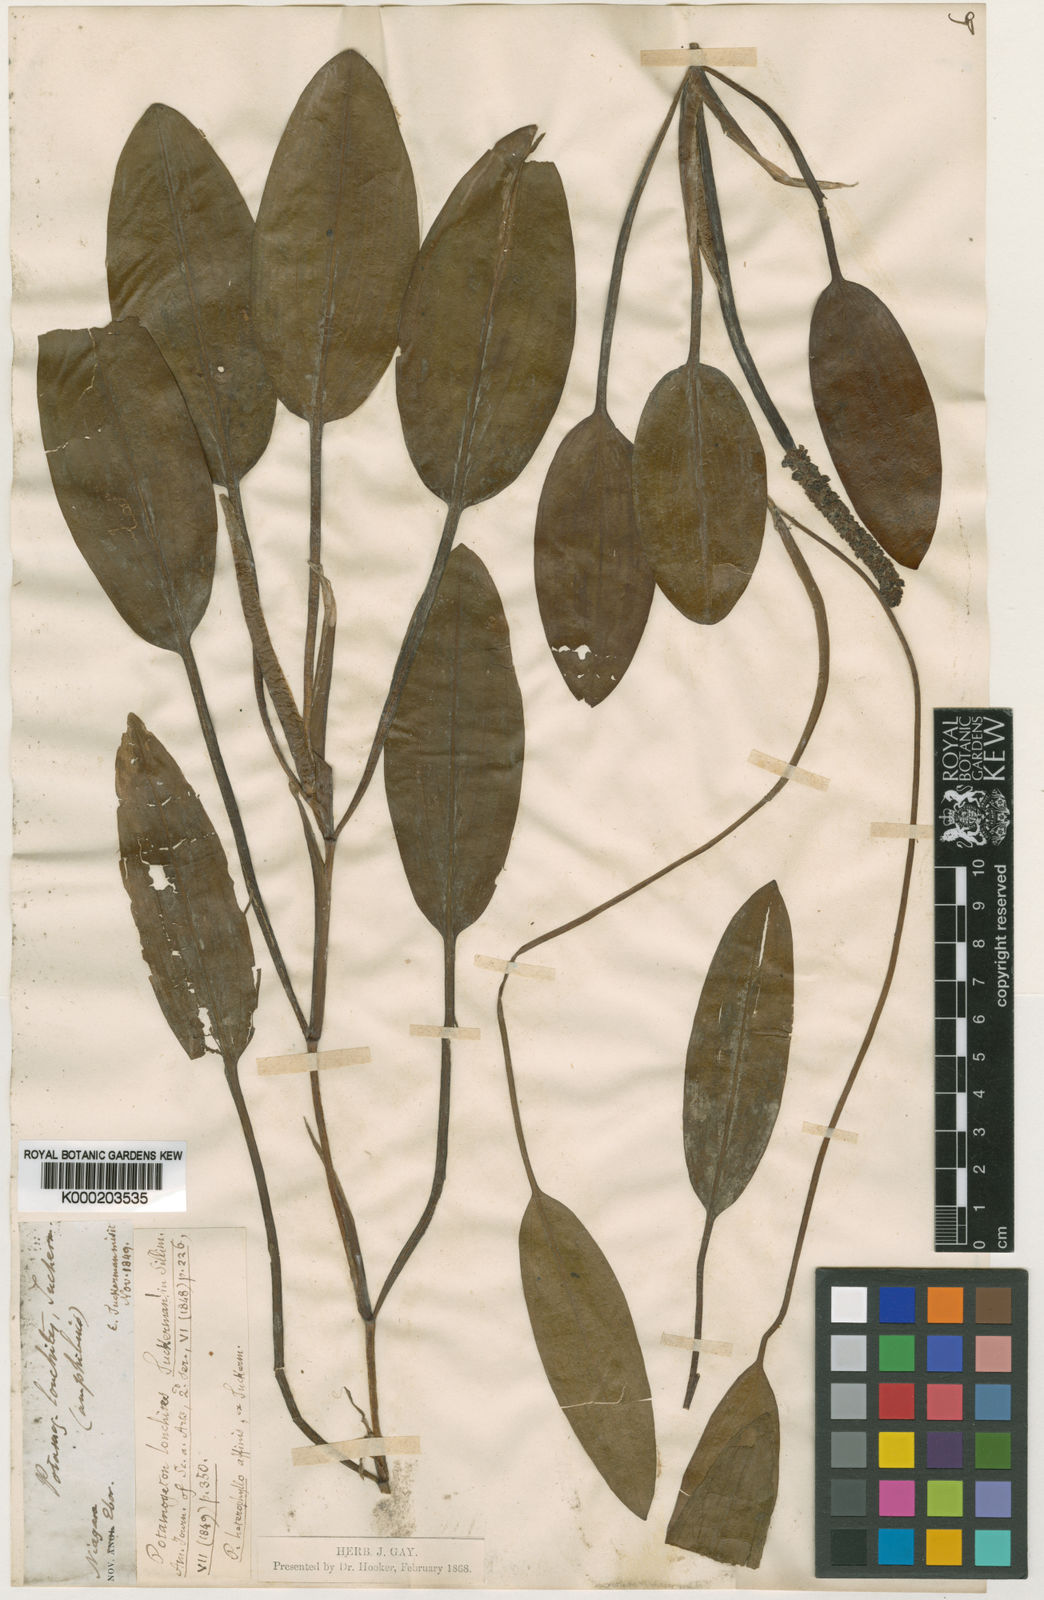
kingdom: Plantae
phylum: Tracheophyta
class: Liliopsida
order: Alismatales
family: Potamogetonaceae
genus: Potamogeton
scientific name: Potamogeton nodosus
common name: Loddon pondweed
